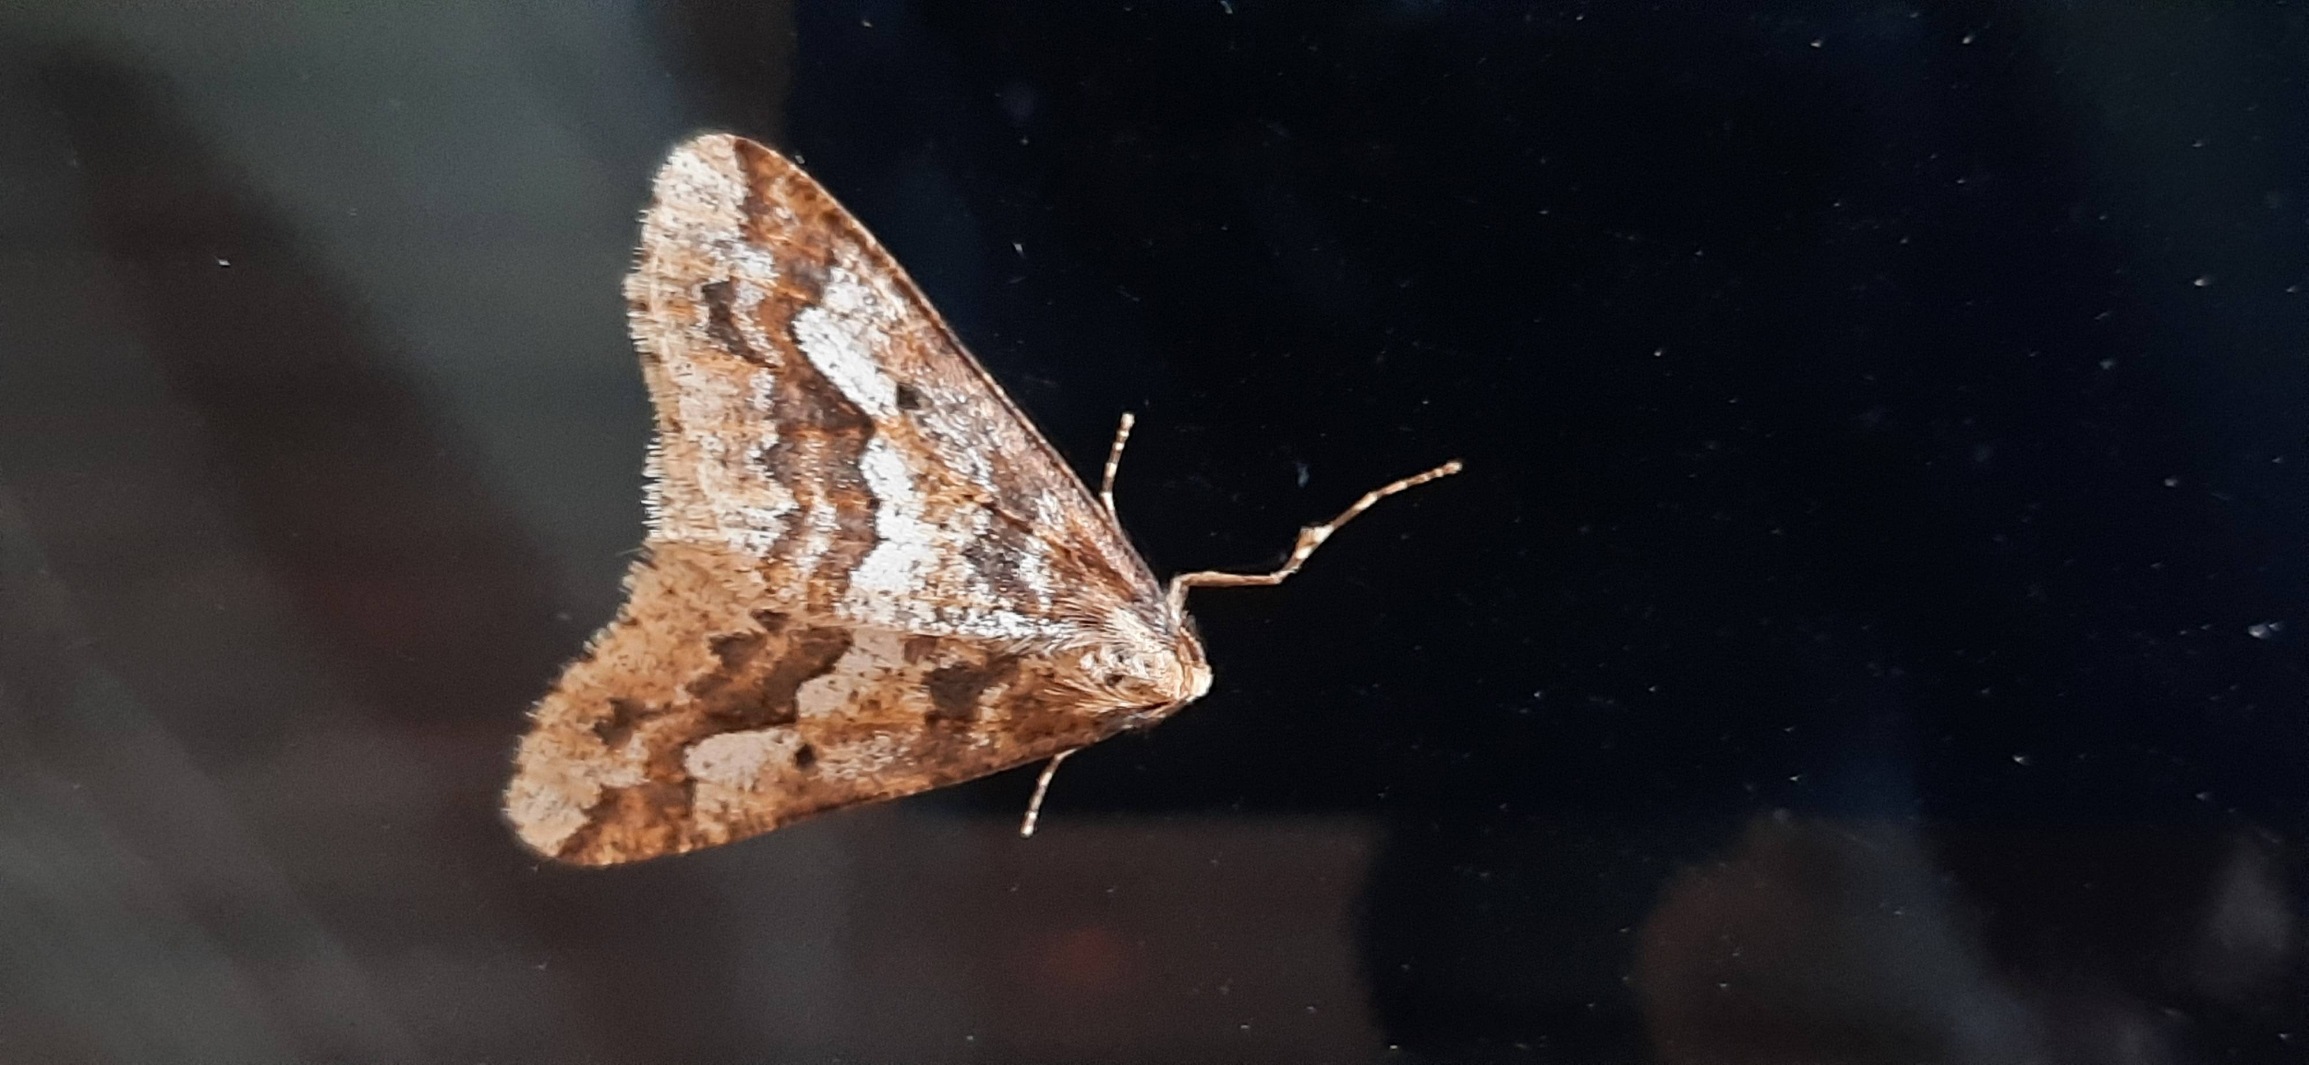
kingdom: Animalia
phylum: Arthropoda
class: Insecta
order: Lepidoptera
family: Geometridae
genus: Erannis
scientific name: Erannis defoliaria
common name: Stor frostmåler
